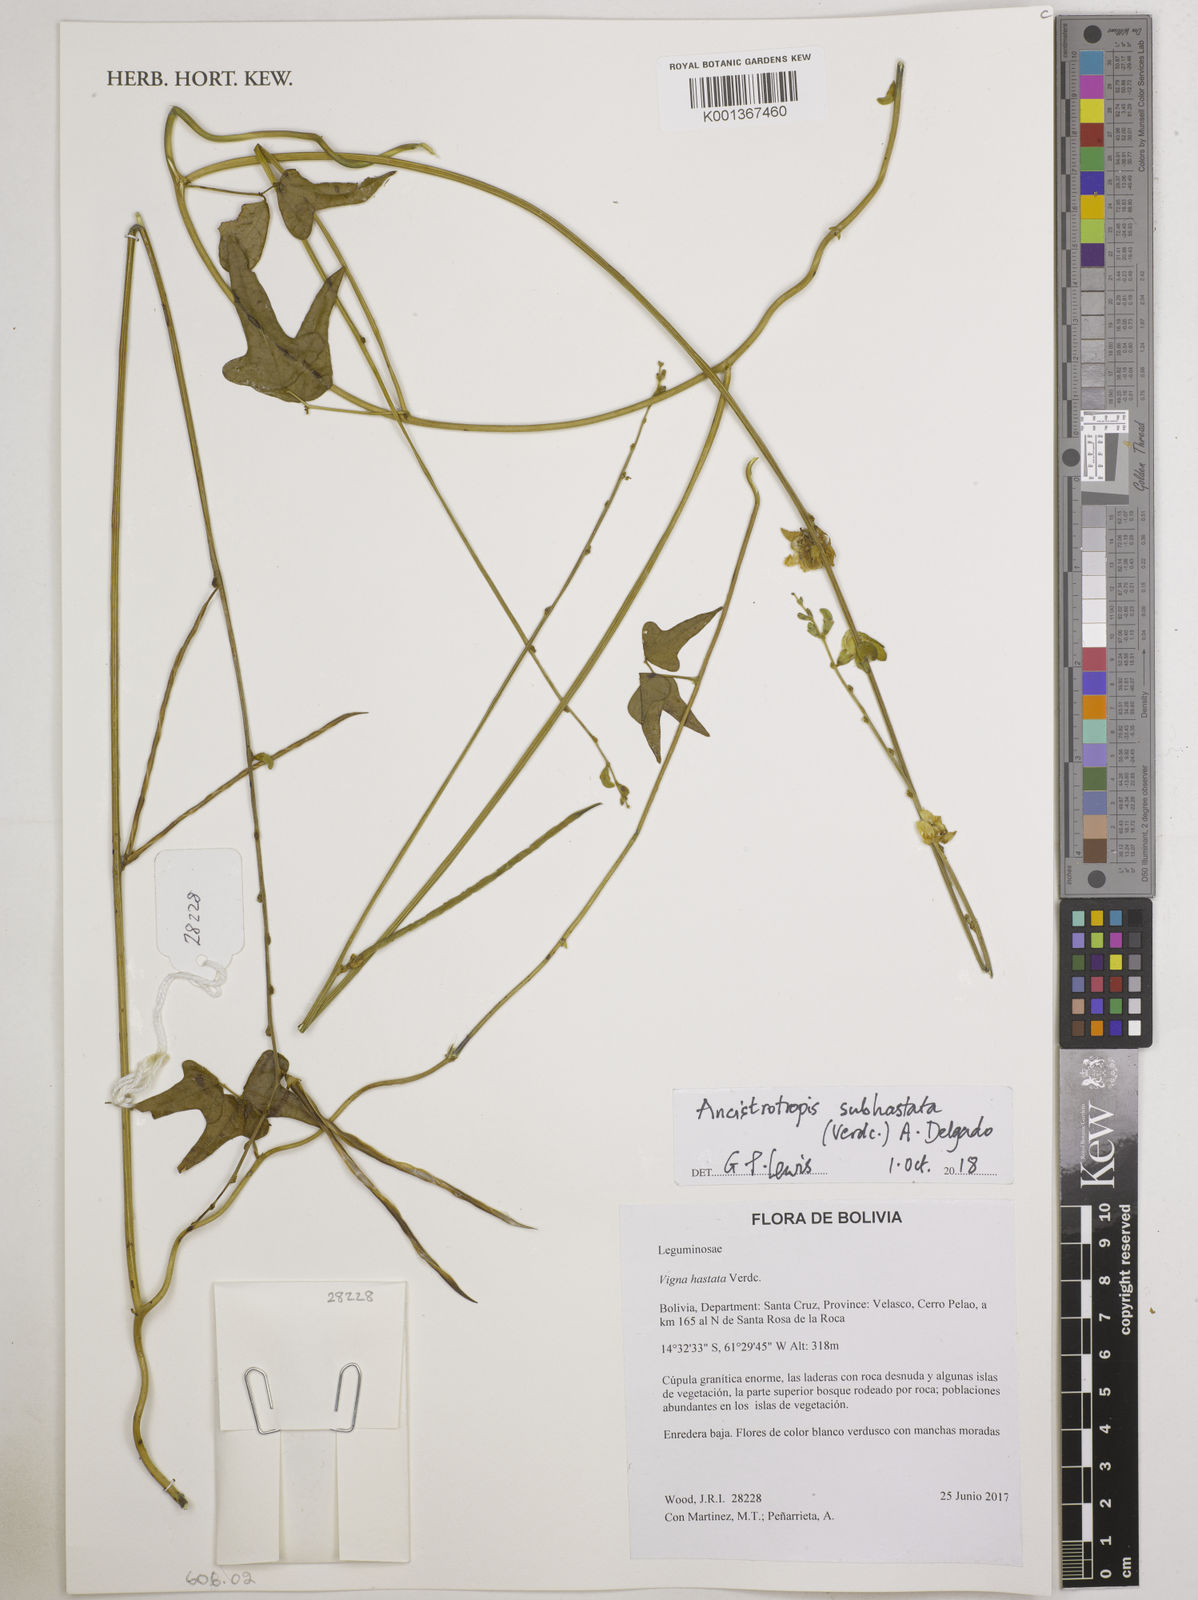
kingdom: Plantae
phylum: Tracheophyta
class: Magnoliopsida
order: Fabales
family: Fabaceae
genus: Dolichopsis
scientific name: Dolichopsis paraguariensis
